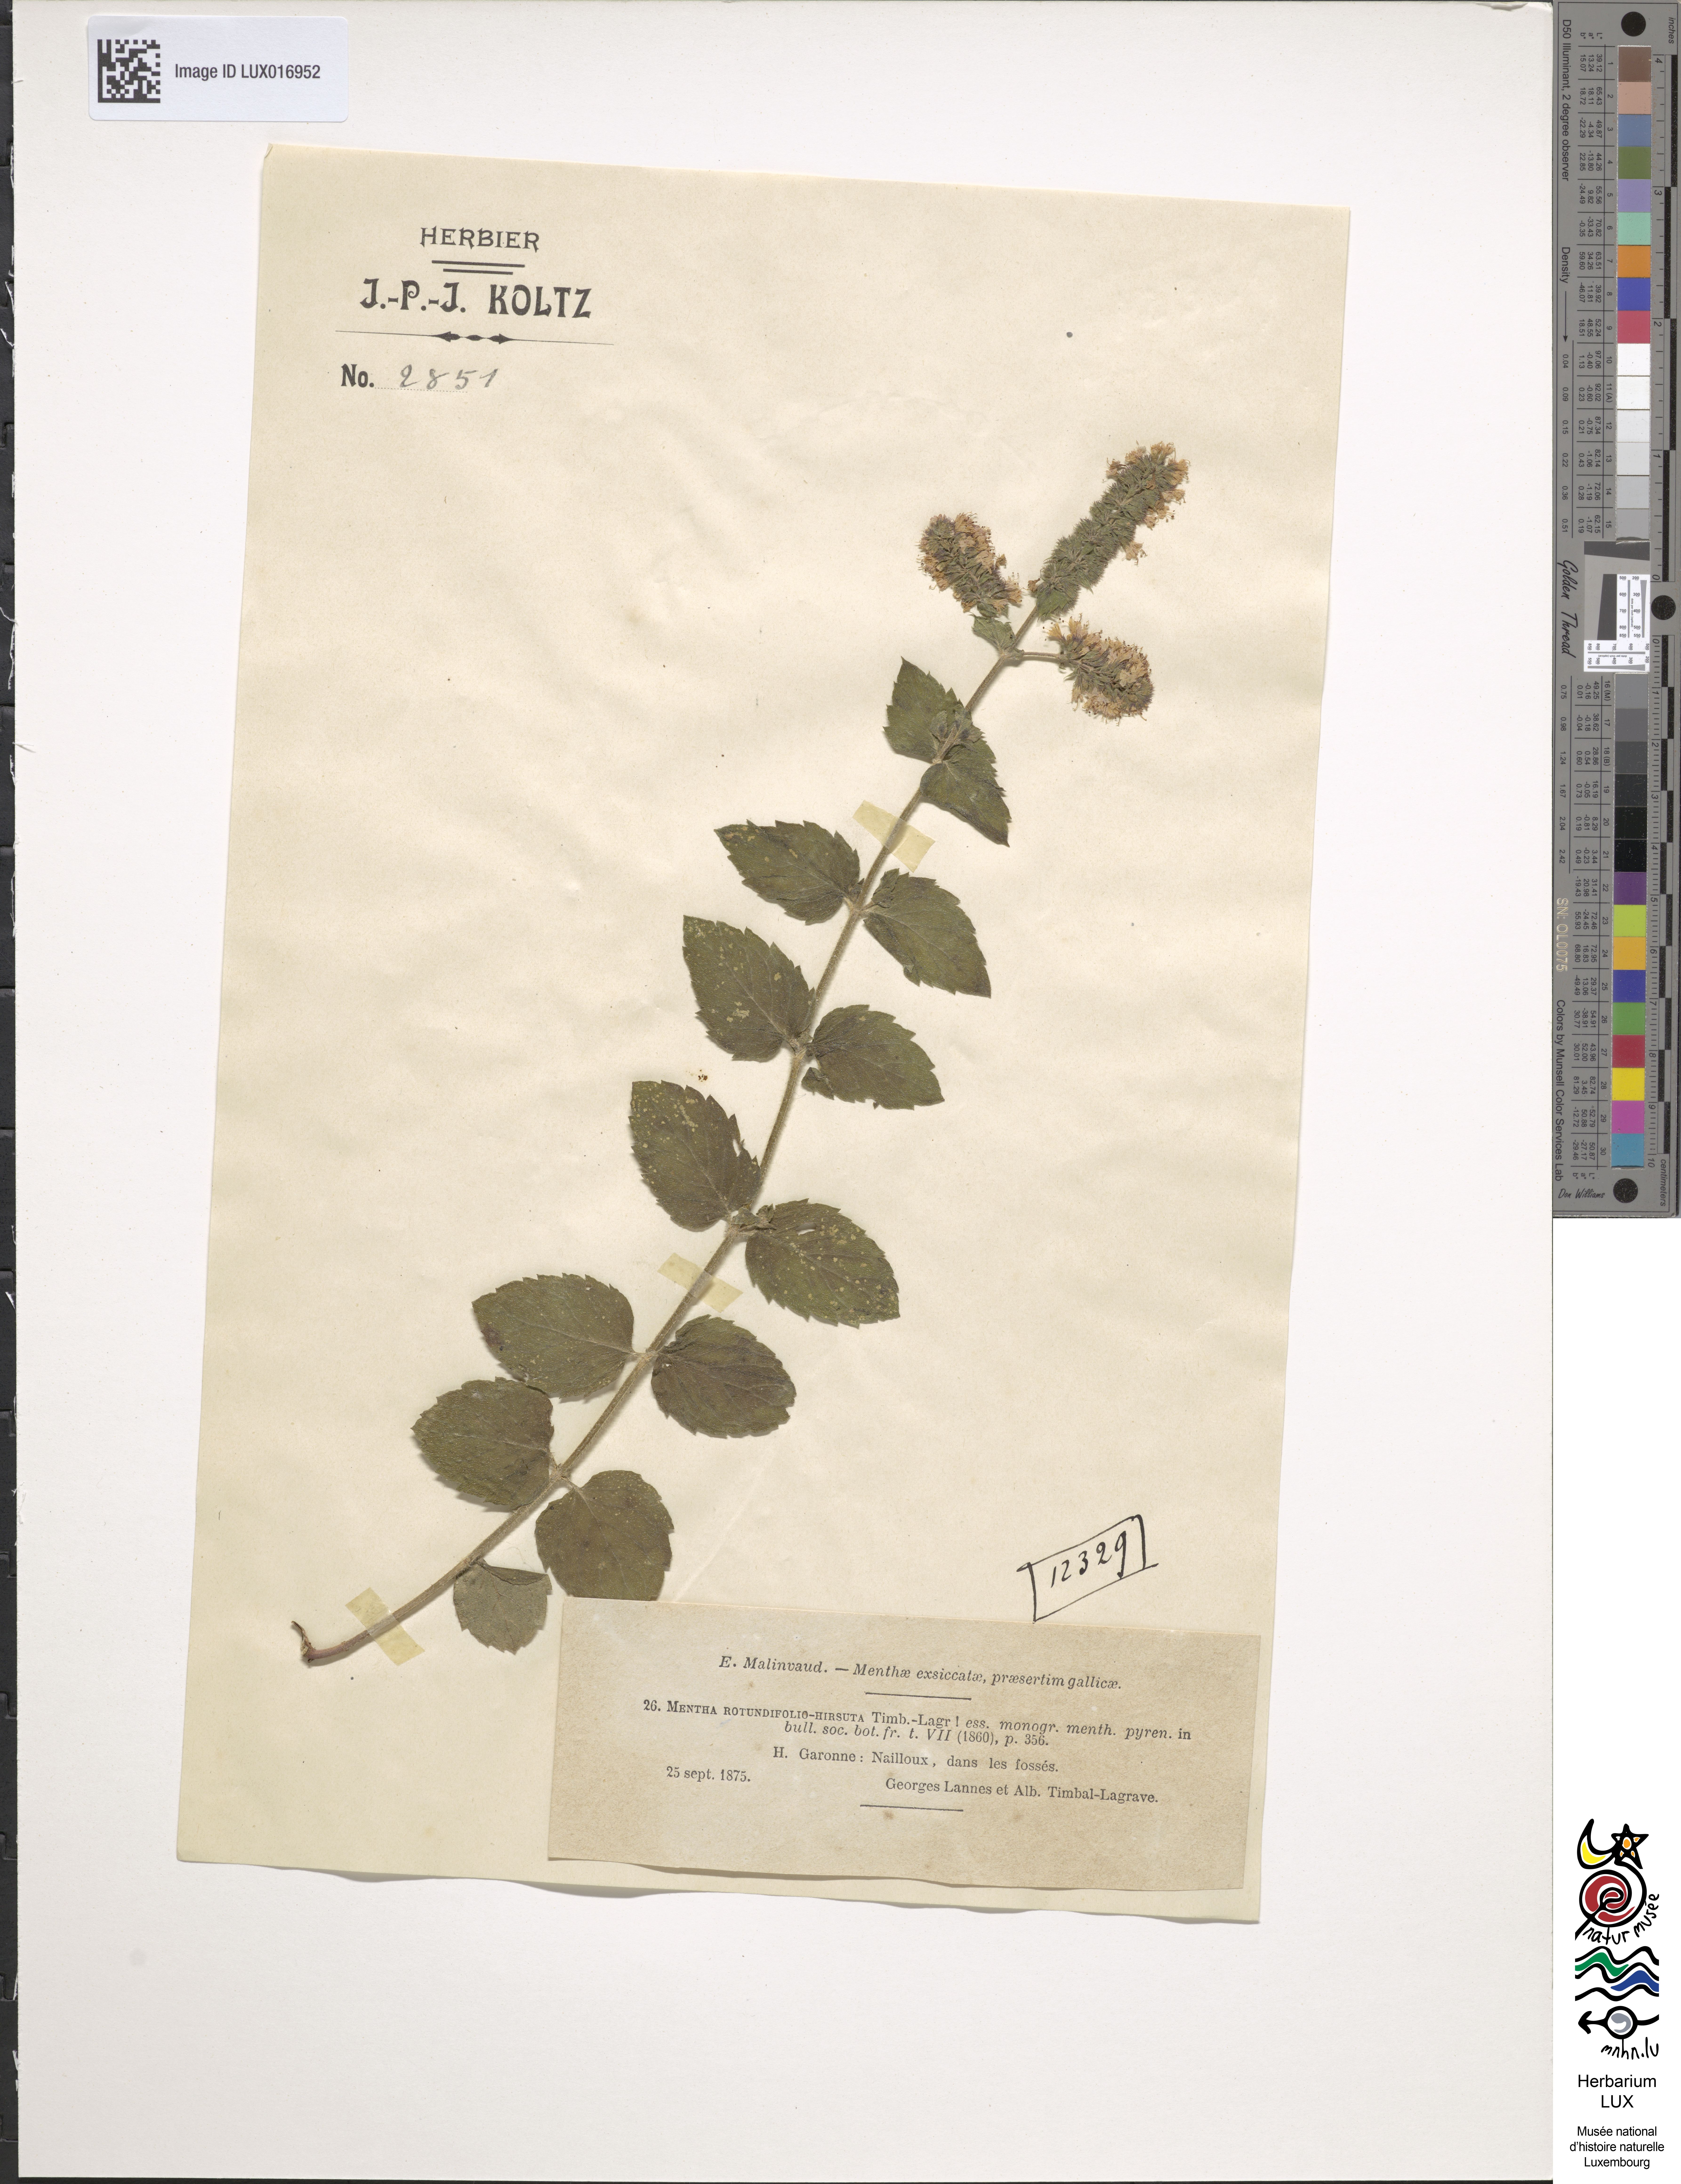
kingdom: Plantae
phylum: Tracheophyta
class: Magnoliopsida
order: Lamiales
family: Lamiaceae
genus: Mentha
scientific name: Mentha suavis
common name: Sweet mint
